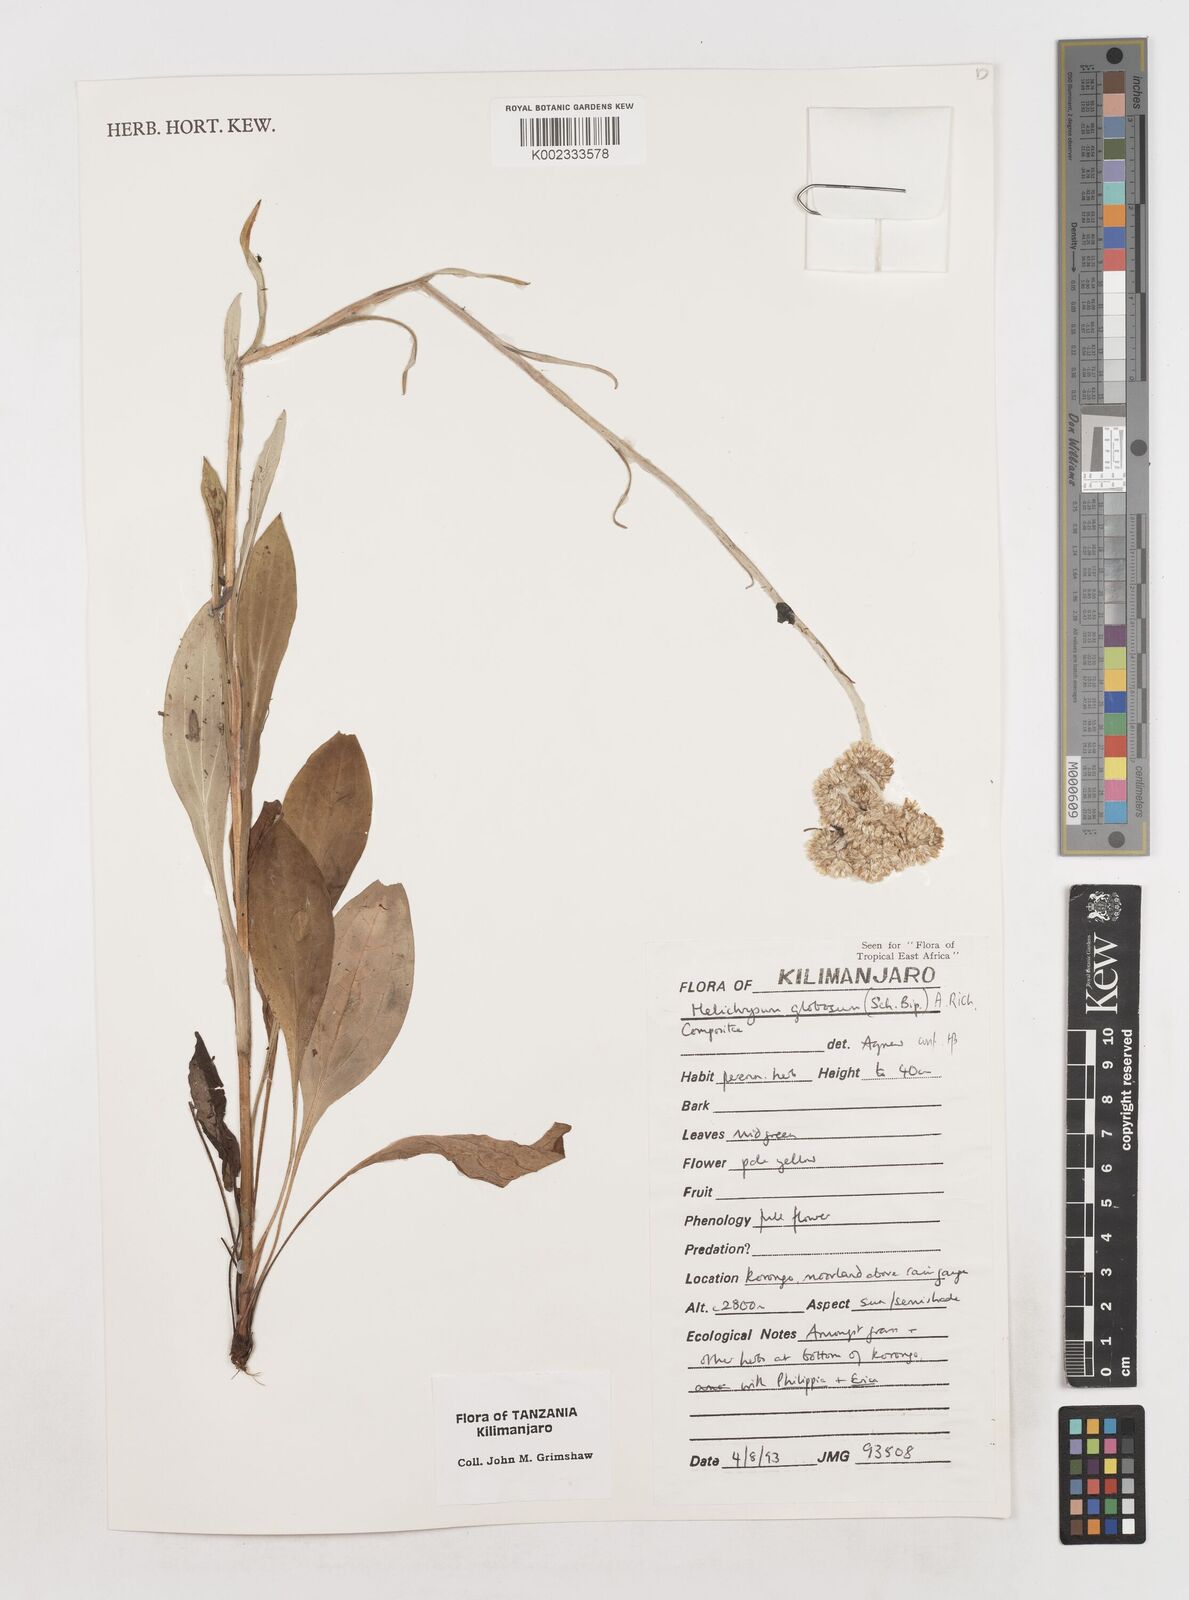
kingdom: Plantae
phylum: Tracheophyta
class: Magnoliopsida
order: Asterales
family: Asteraceae
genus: Helichrysum
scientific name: Helichrysum globosum
